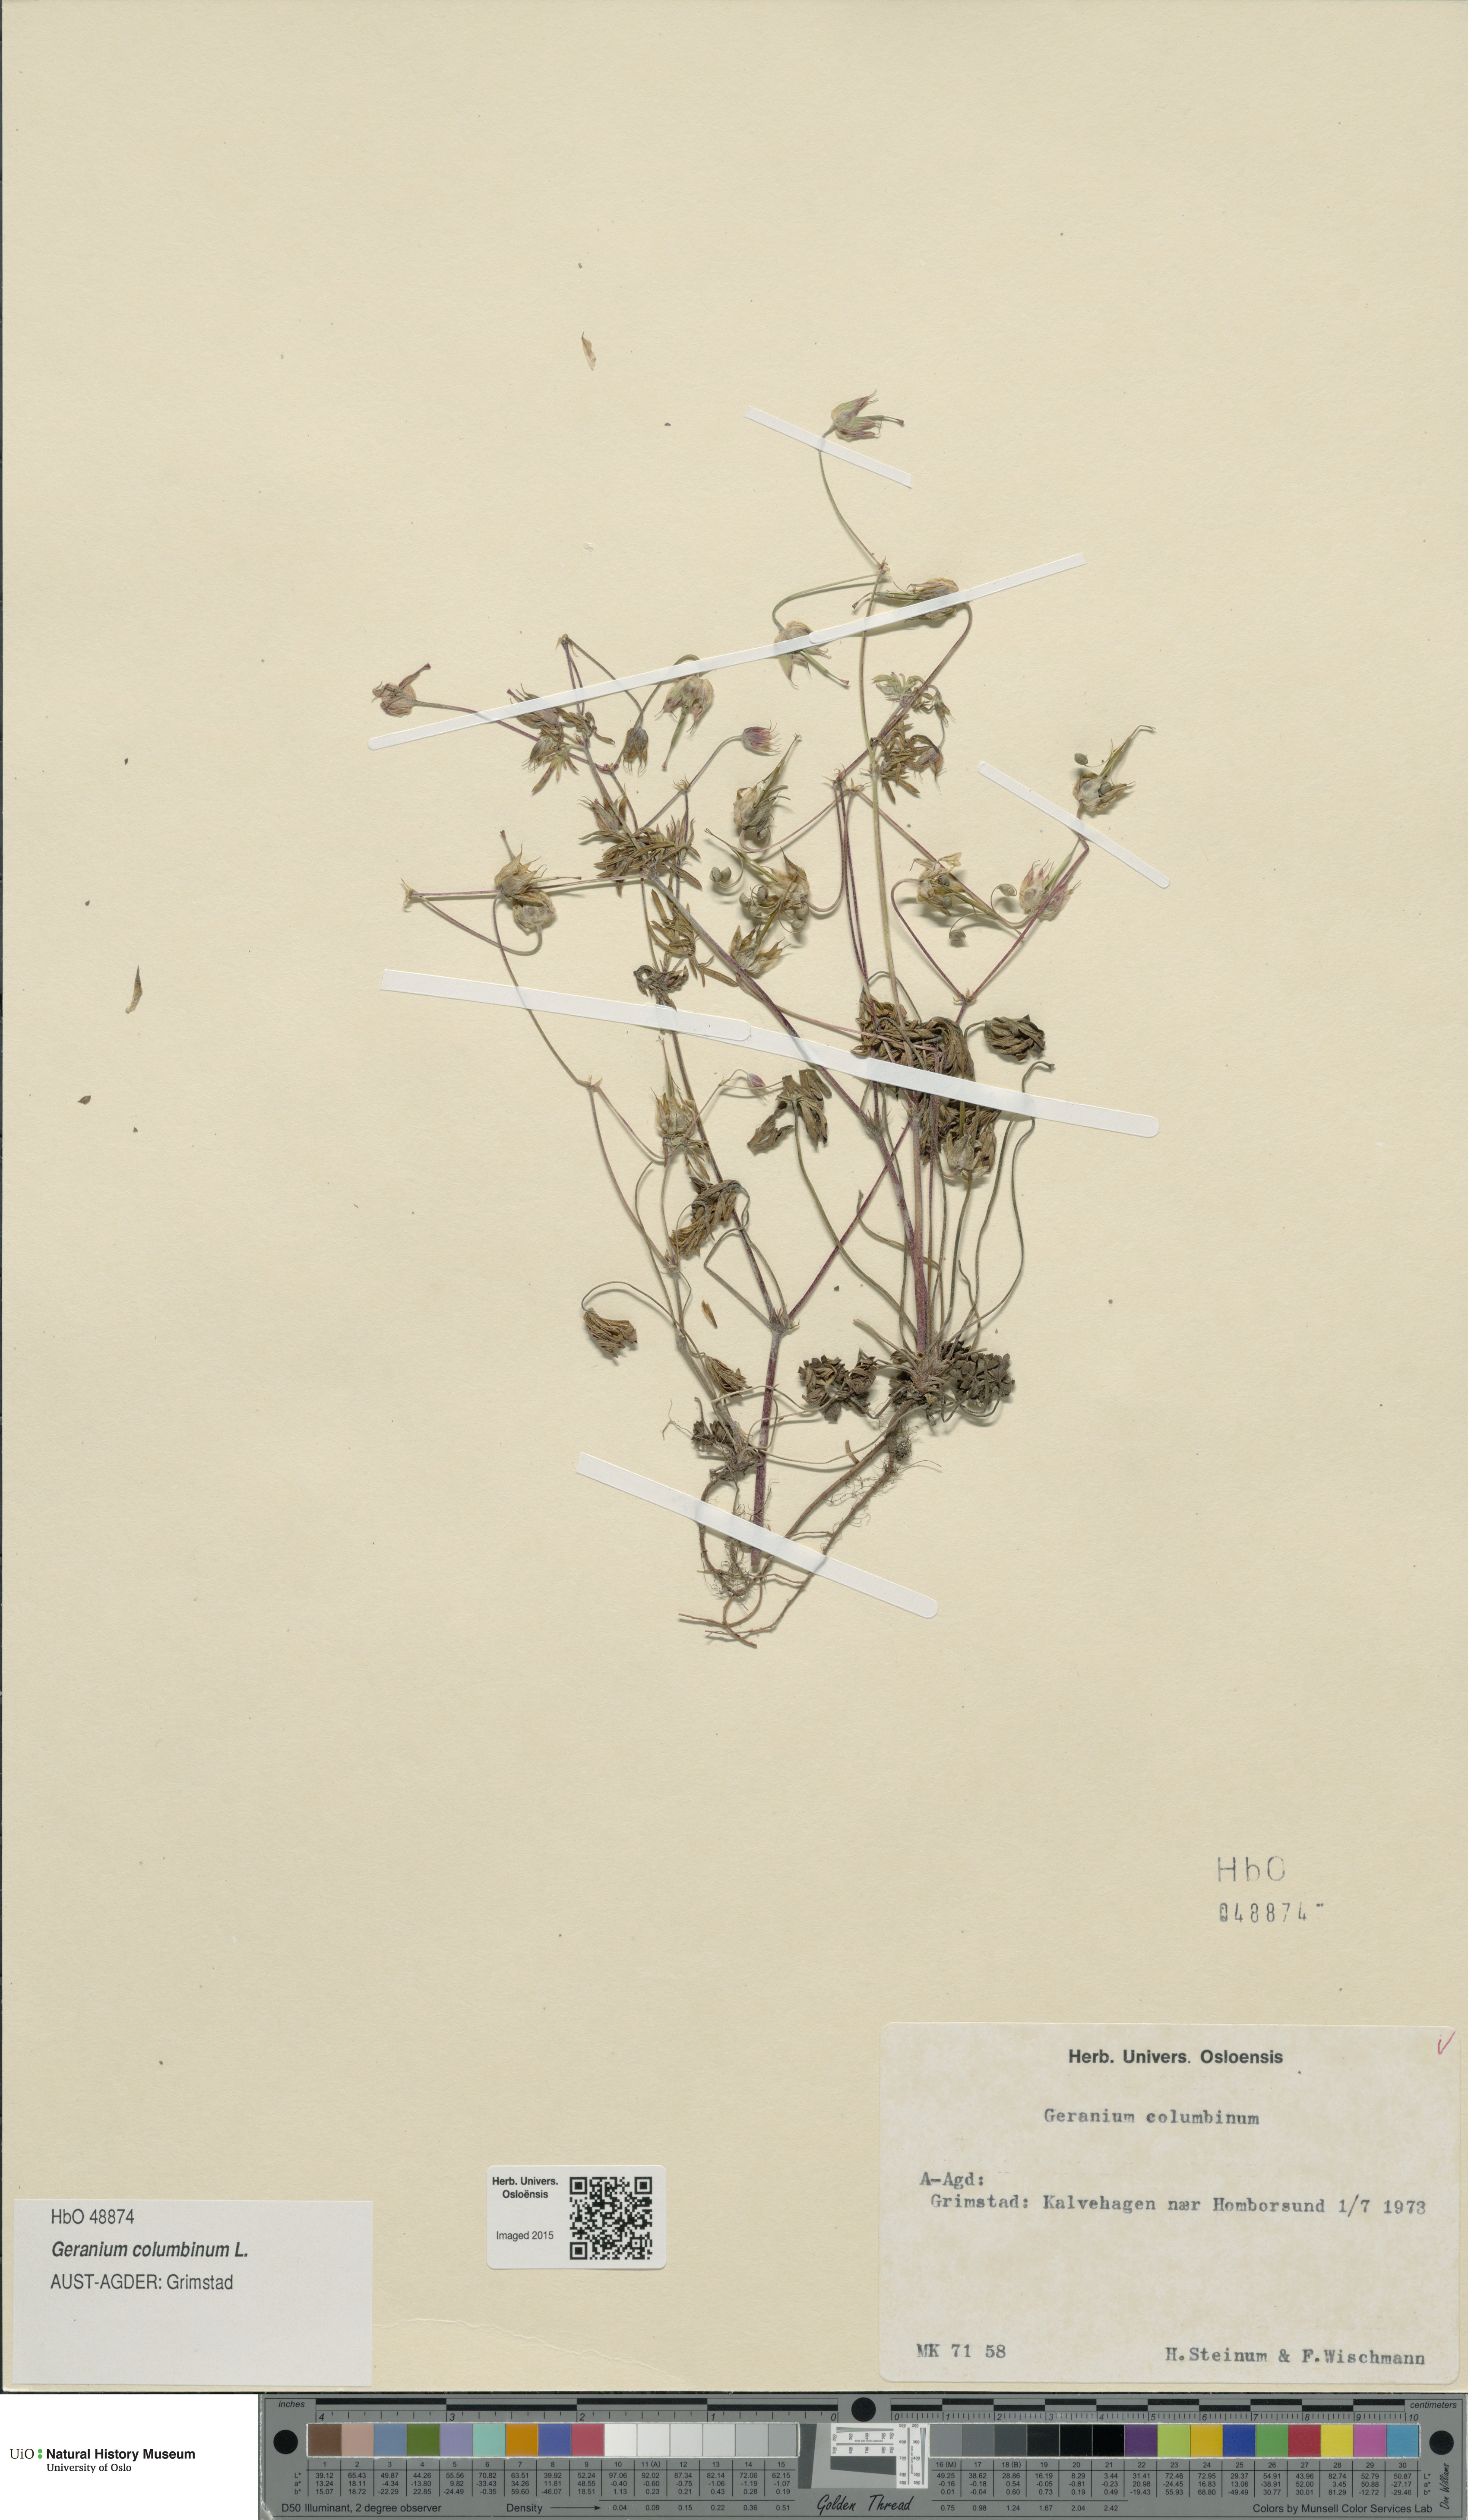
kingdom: Plantae
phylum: Tracheophyta
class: Magnoliopsida
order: Geraniales
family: Geraniaceae
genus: Geranium
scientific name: Geranium columbinum
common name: Long-stalked crane's-bill
